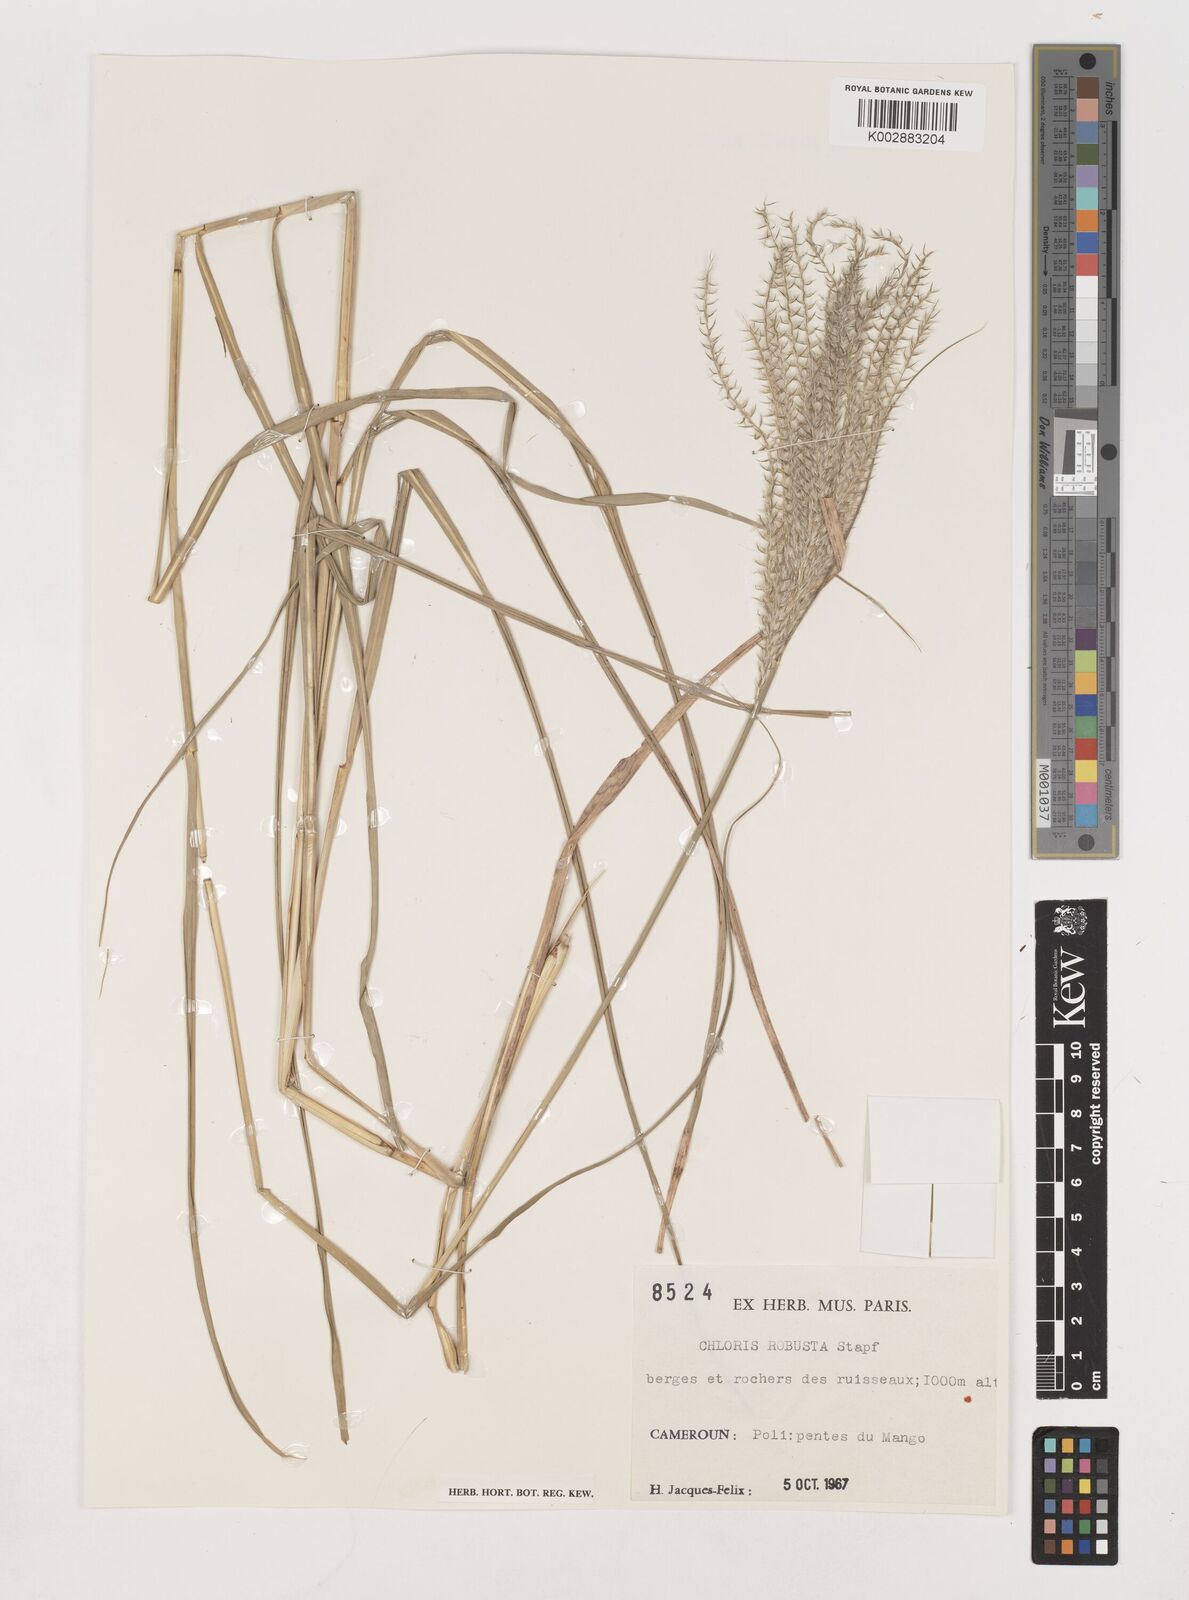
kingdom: Plantae
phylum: Tracheophyta
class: Liliopsida
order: Poales
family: Poaceae
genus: Chloris
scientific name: Chloris robusta
